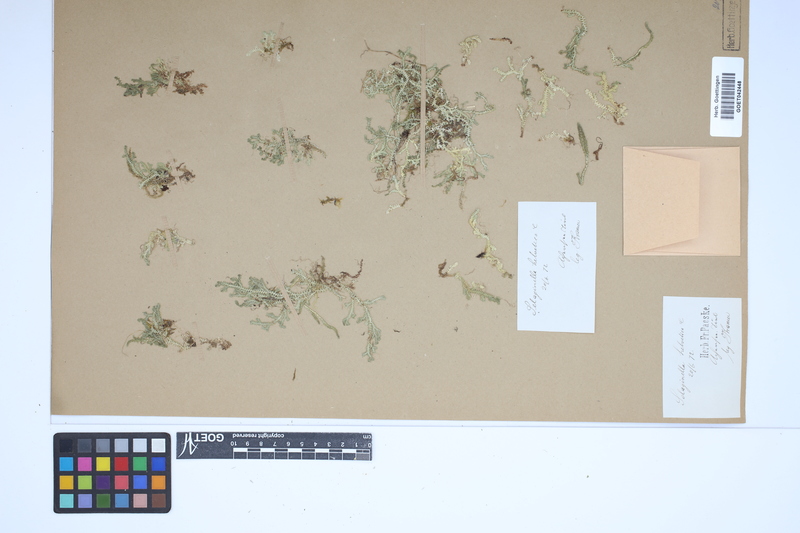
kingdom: Plantae
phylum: Tracheophyta
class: Lycopodiopsida
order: Selaginellales
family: Selaginellaceae
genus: Selaginella
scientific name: Selaginella helvetica
